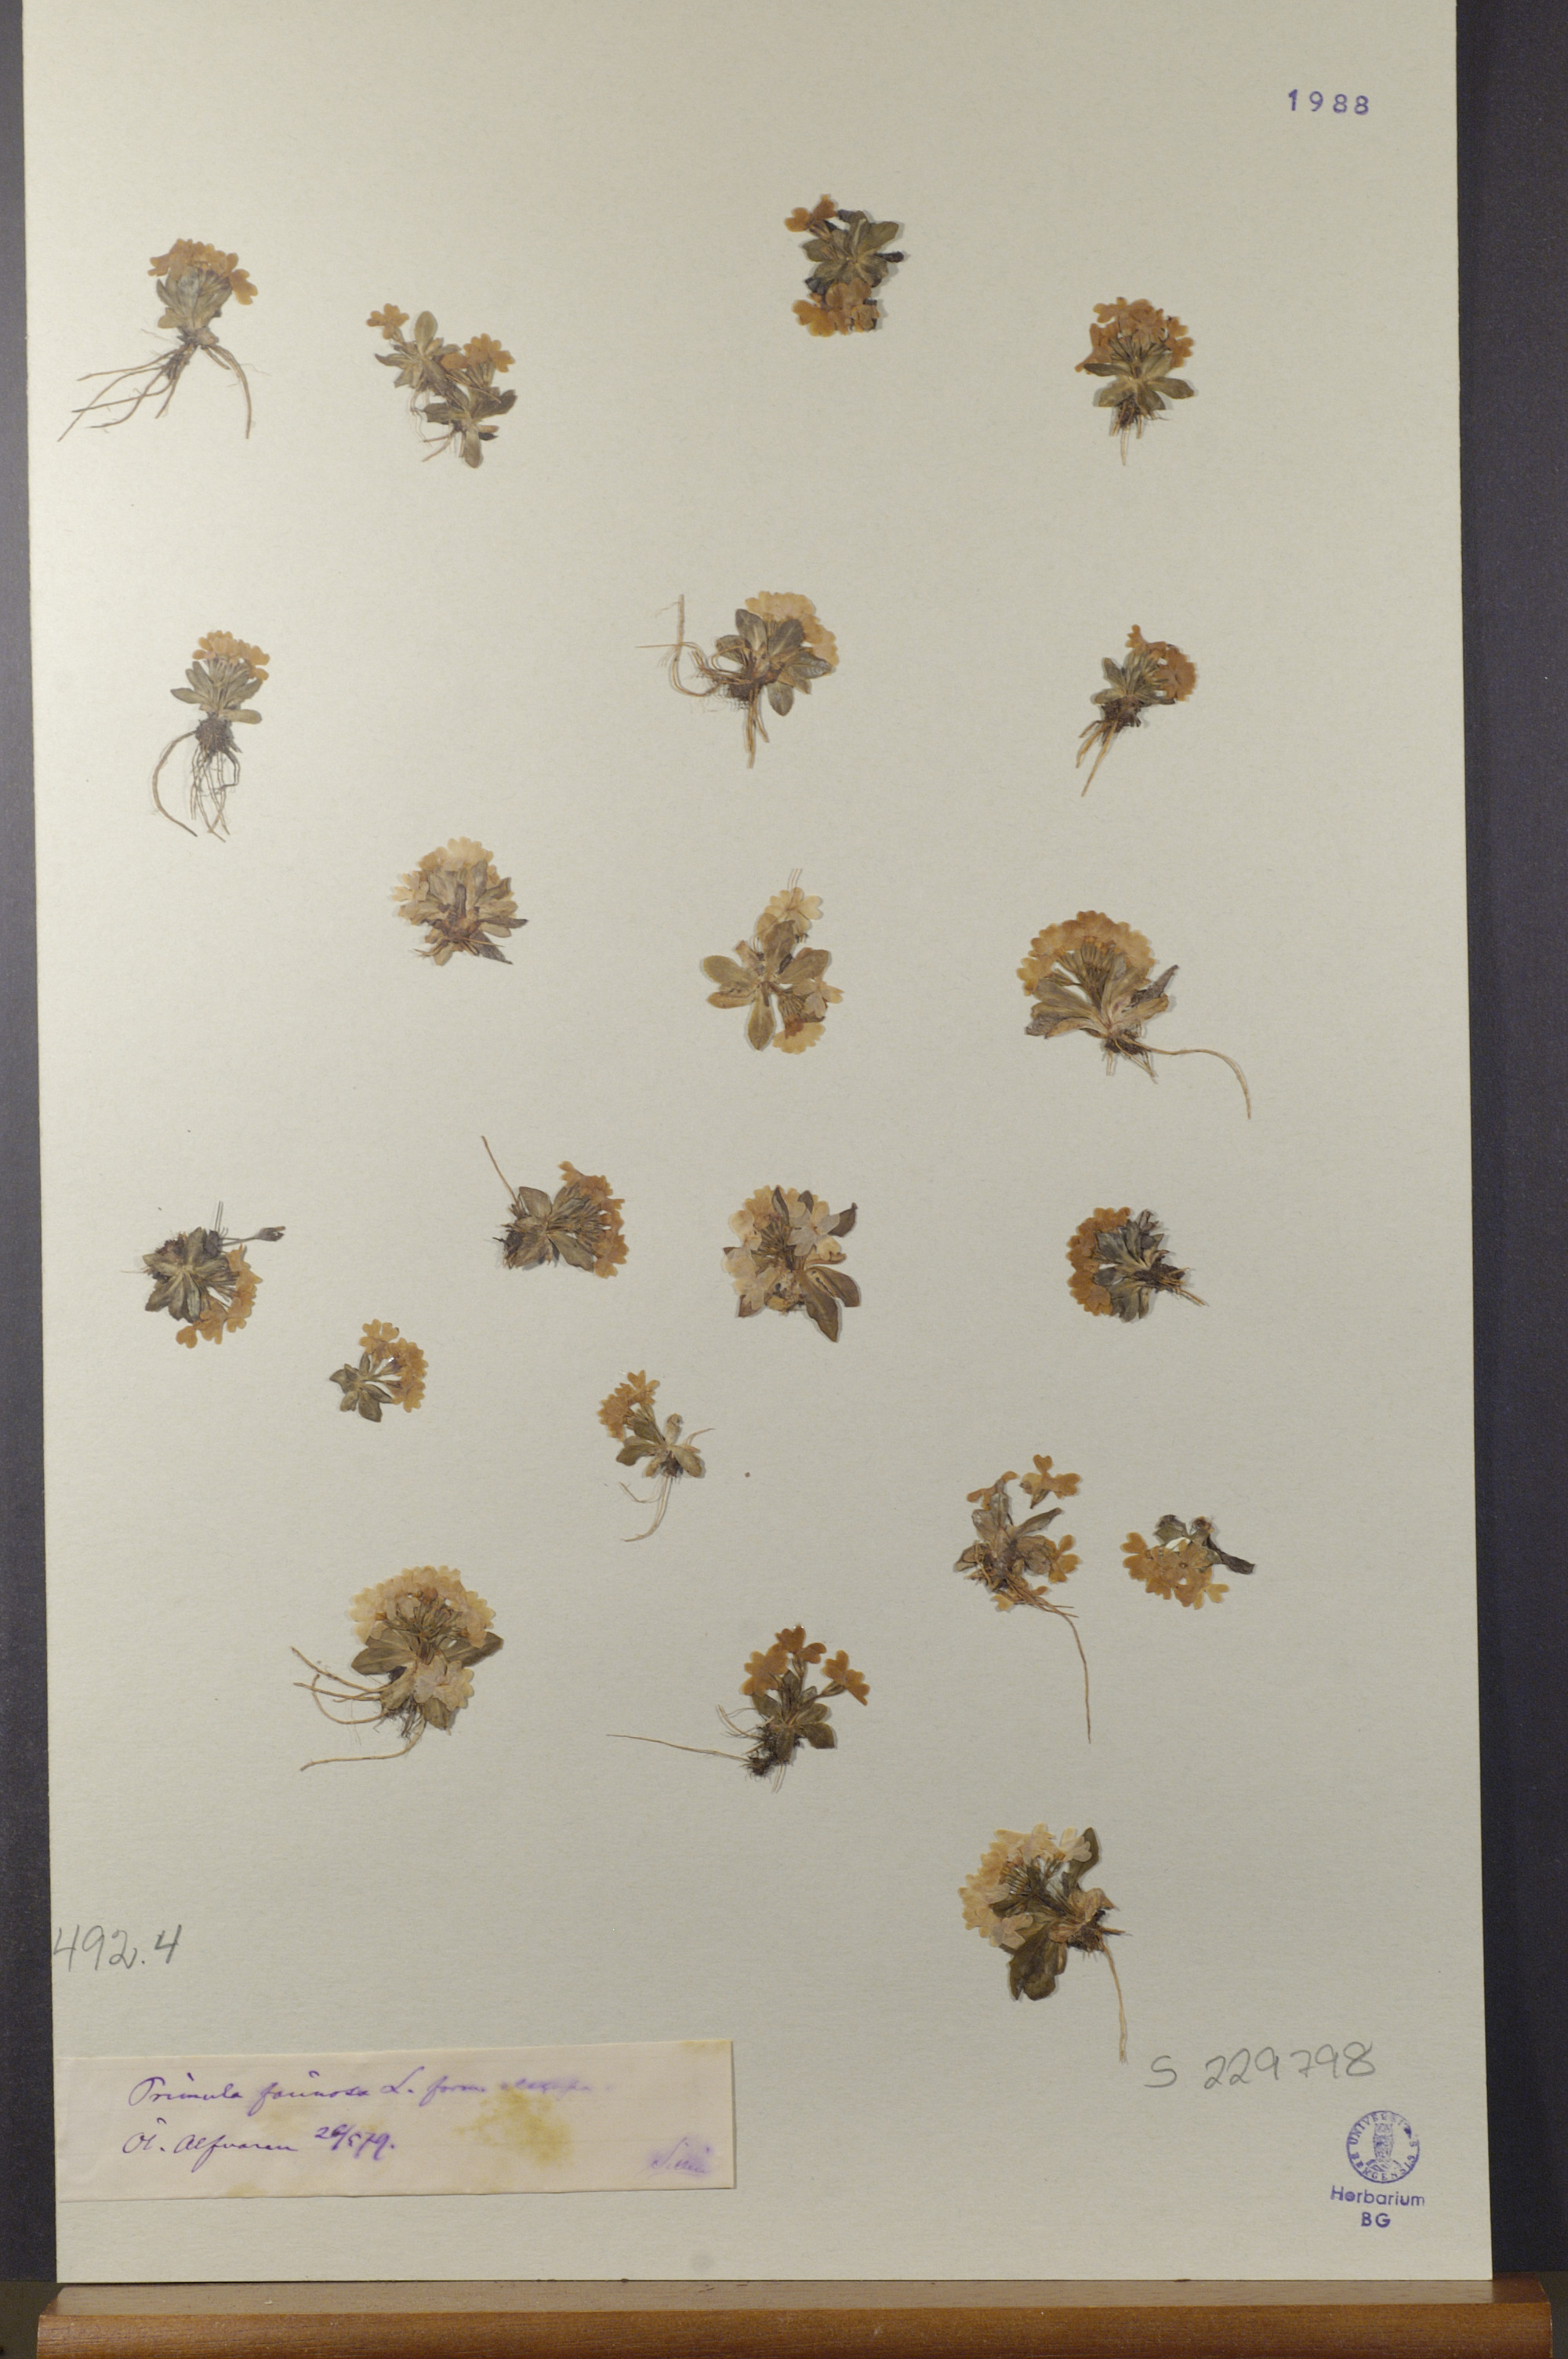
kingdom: Plantae
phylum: Tracheophyta
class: Magnoliopsida
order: Ericales
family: Primulaceae
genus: Primula
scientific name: Primula farinosa
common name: Bird's-eye primrose
